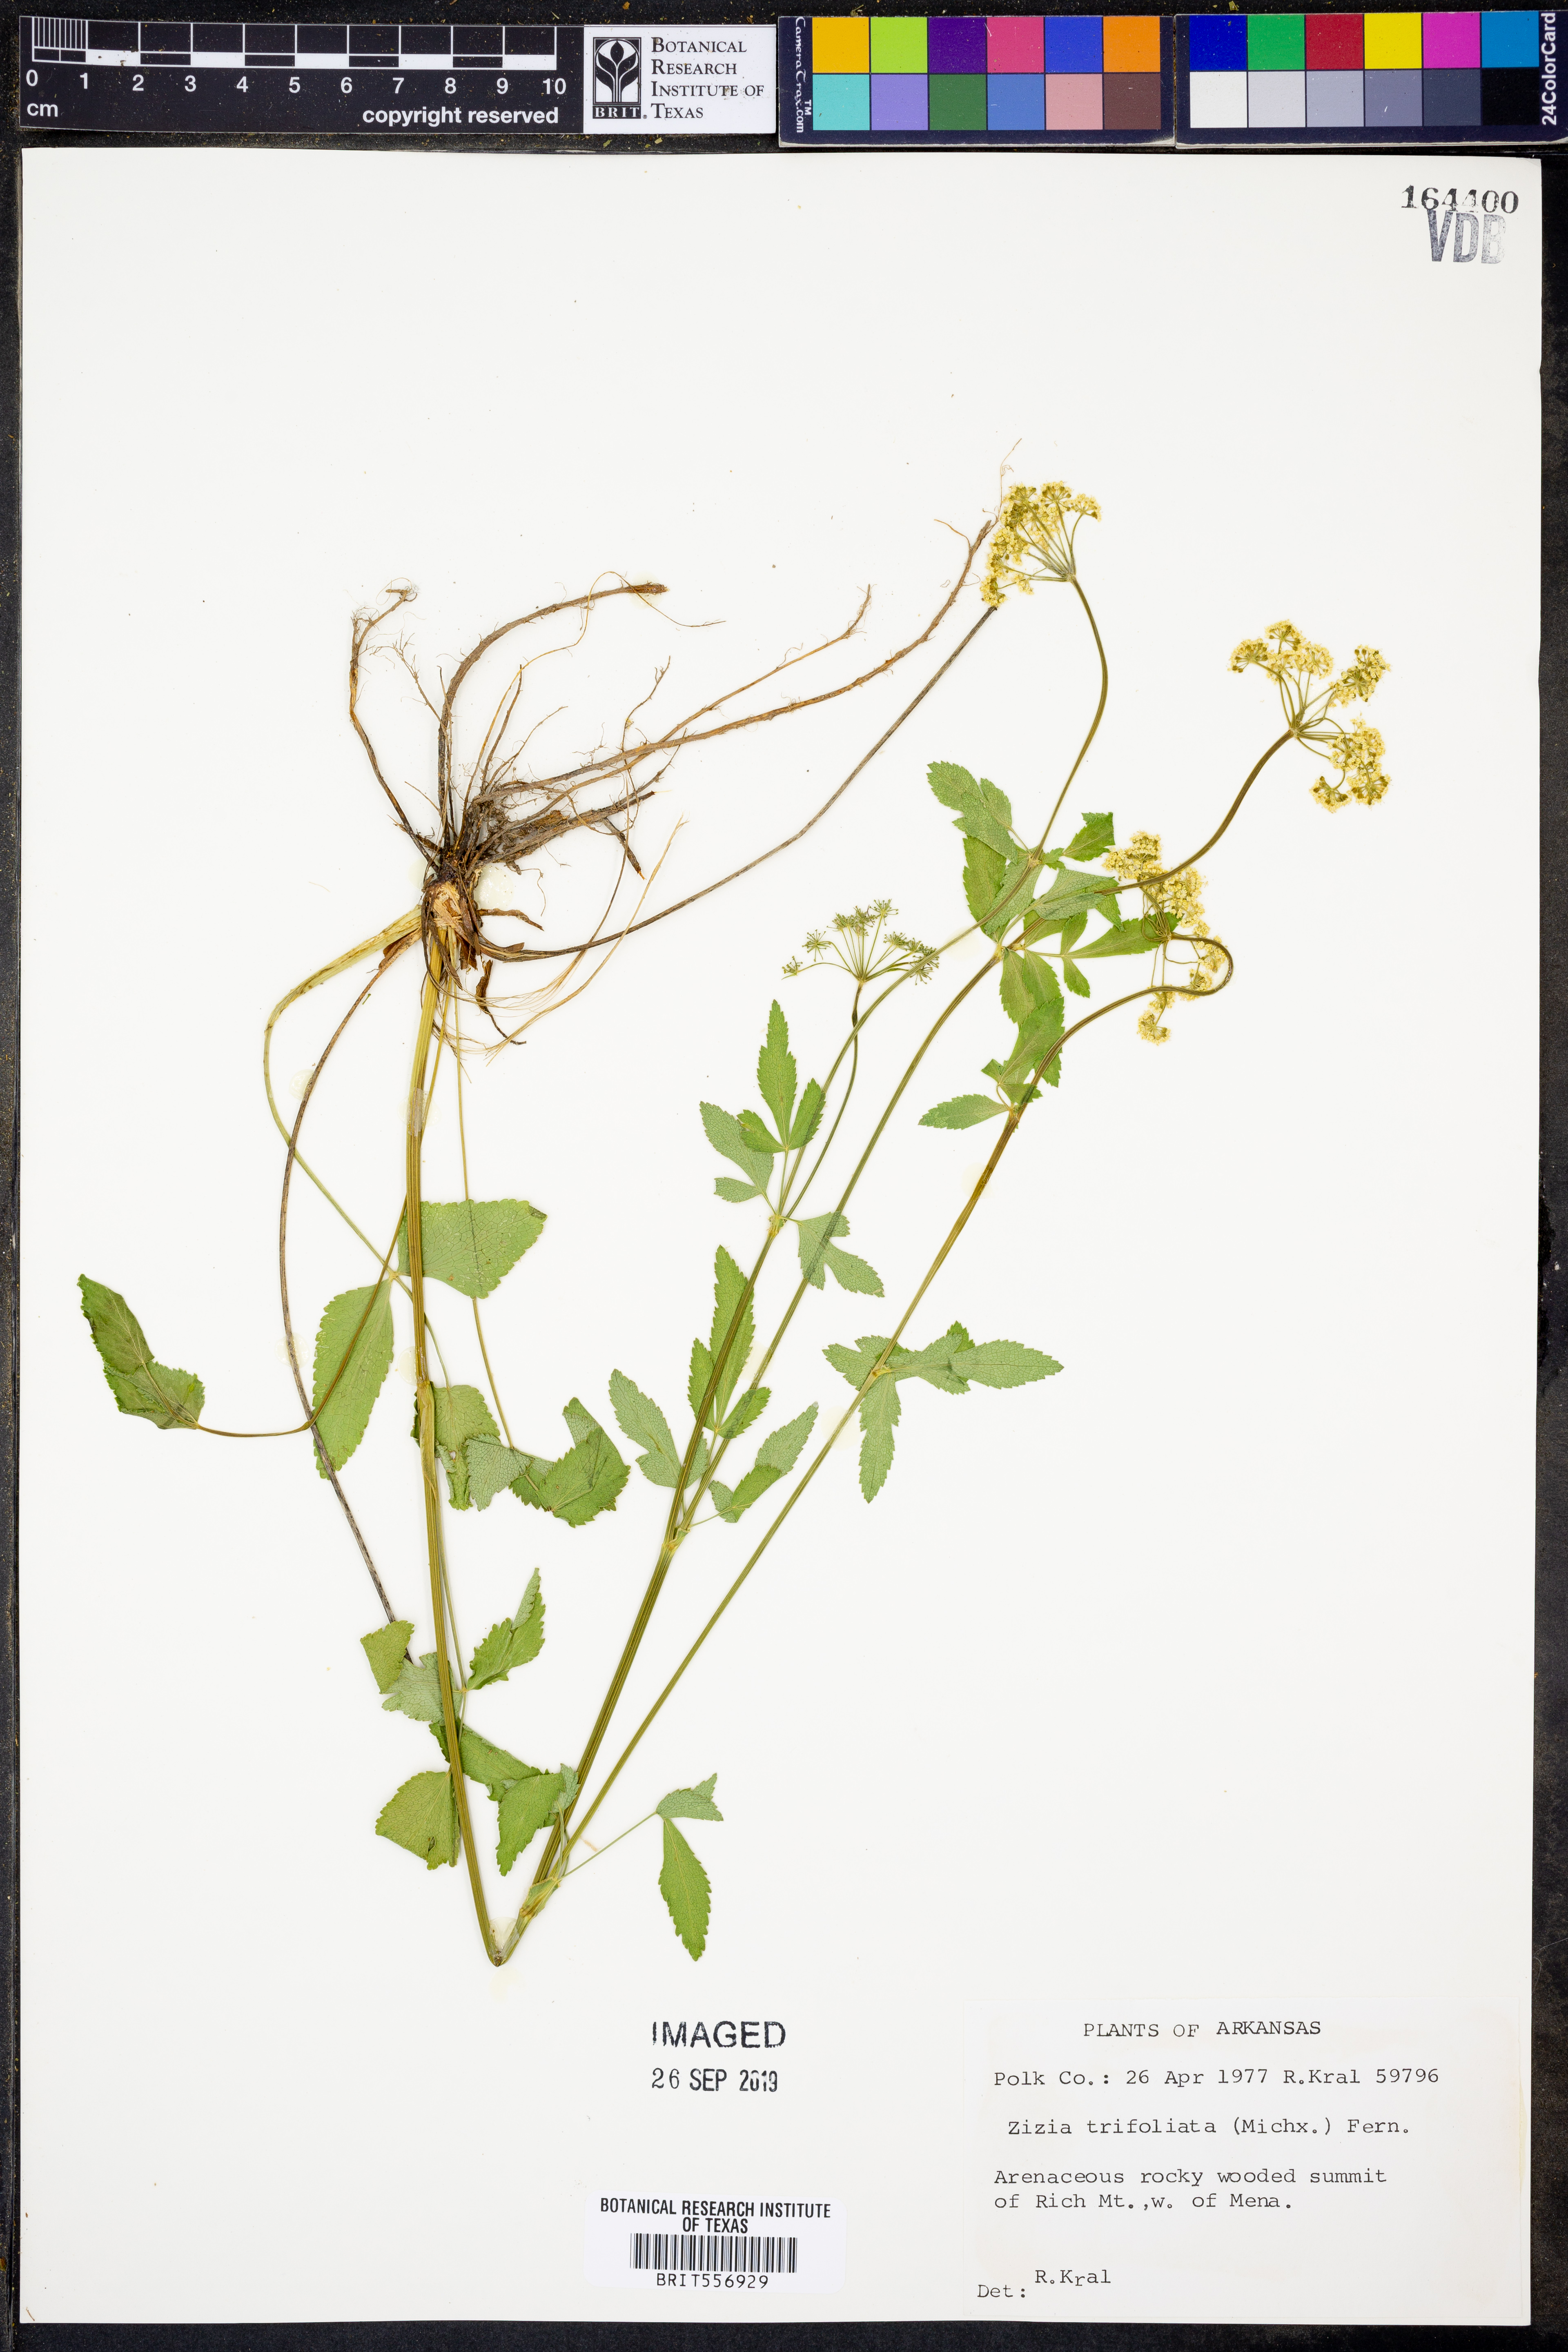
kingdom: Plantae
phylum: Tracheophyta
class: Magnoliopsida
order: Apiales
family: Apiaceae
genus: Zizia
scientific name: Zizia trifoliata
